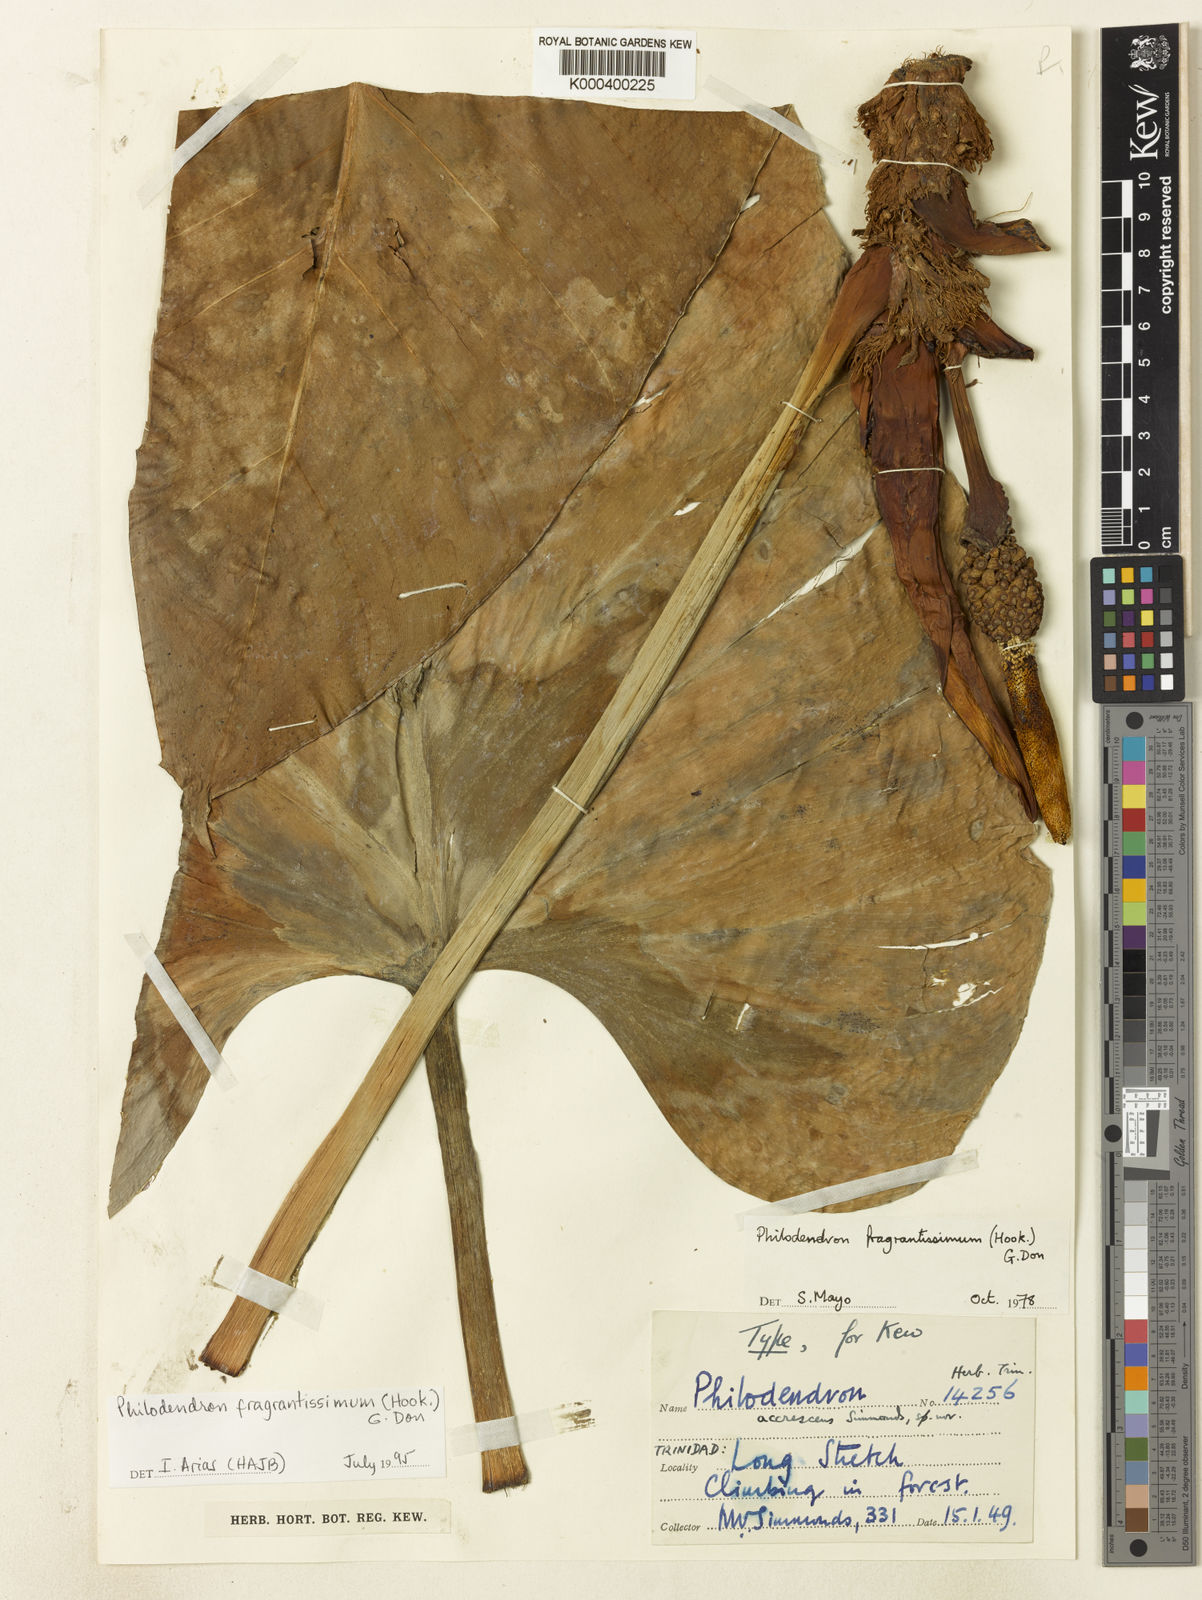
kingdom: Plantae
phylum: Tracheophyta
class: Liliopsida
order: Alismatales
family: Araceae
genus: Philodendron
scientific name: Philodendron fragrantissimum
